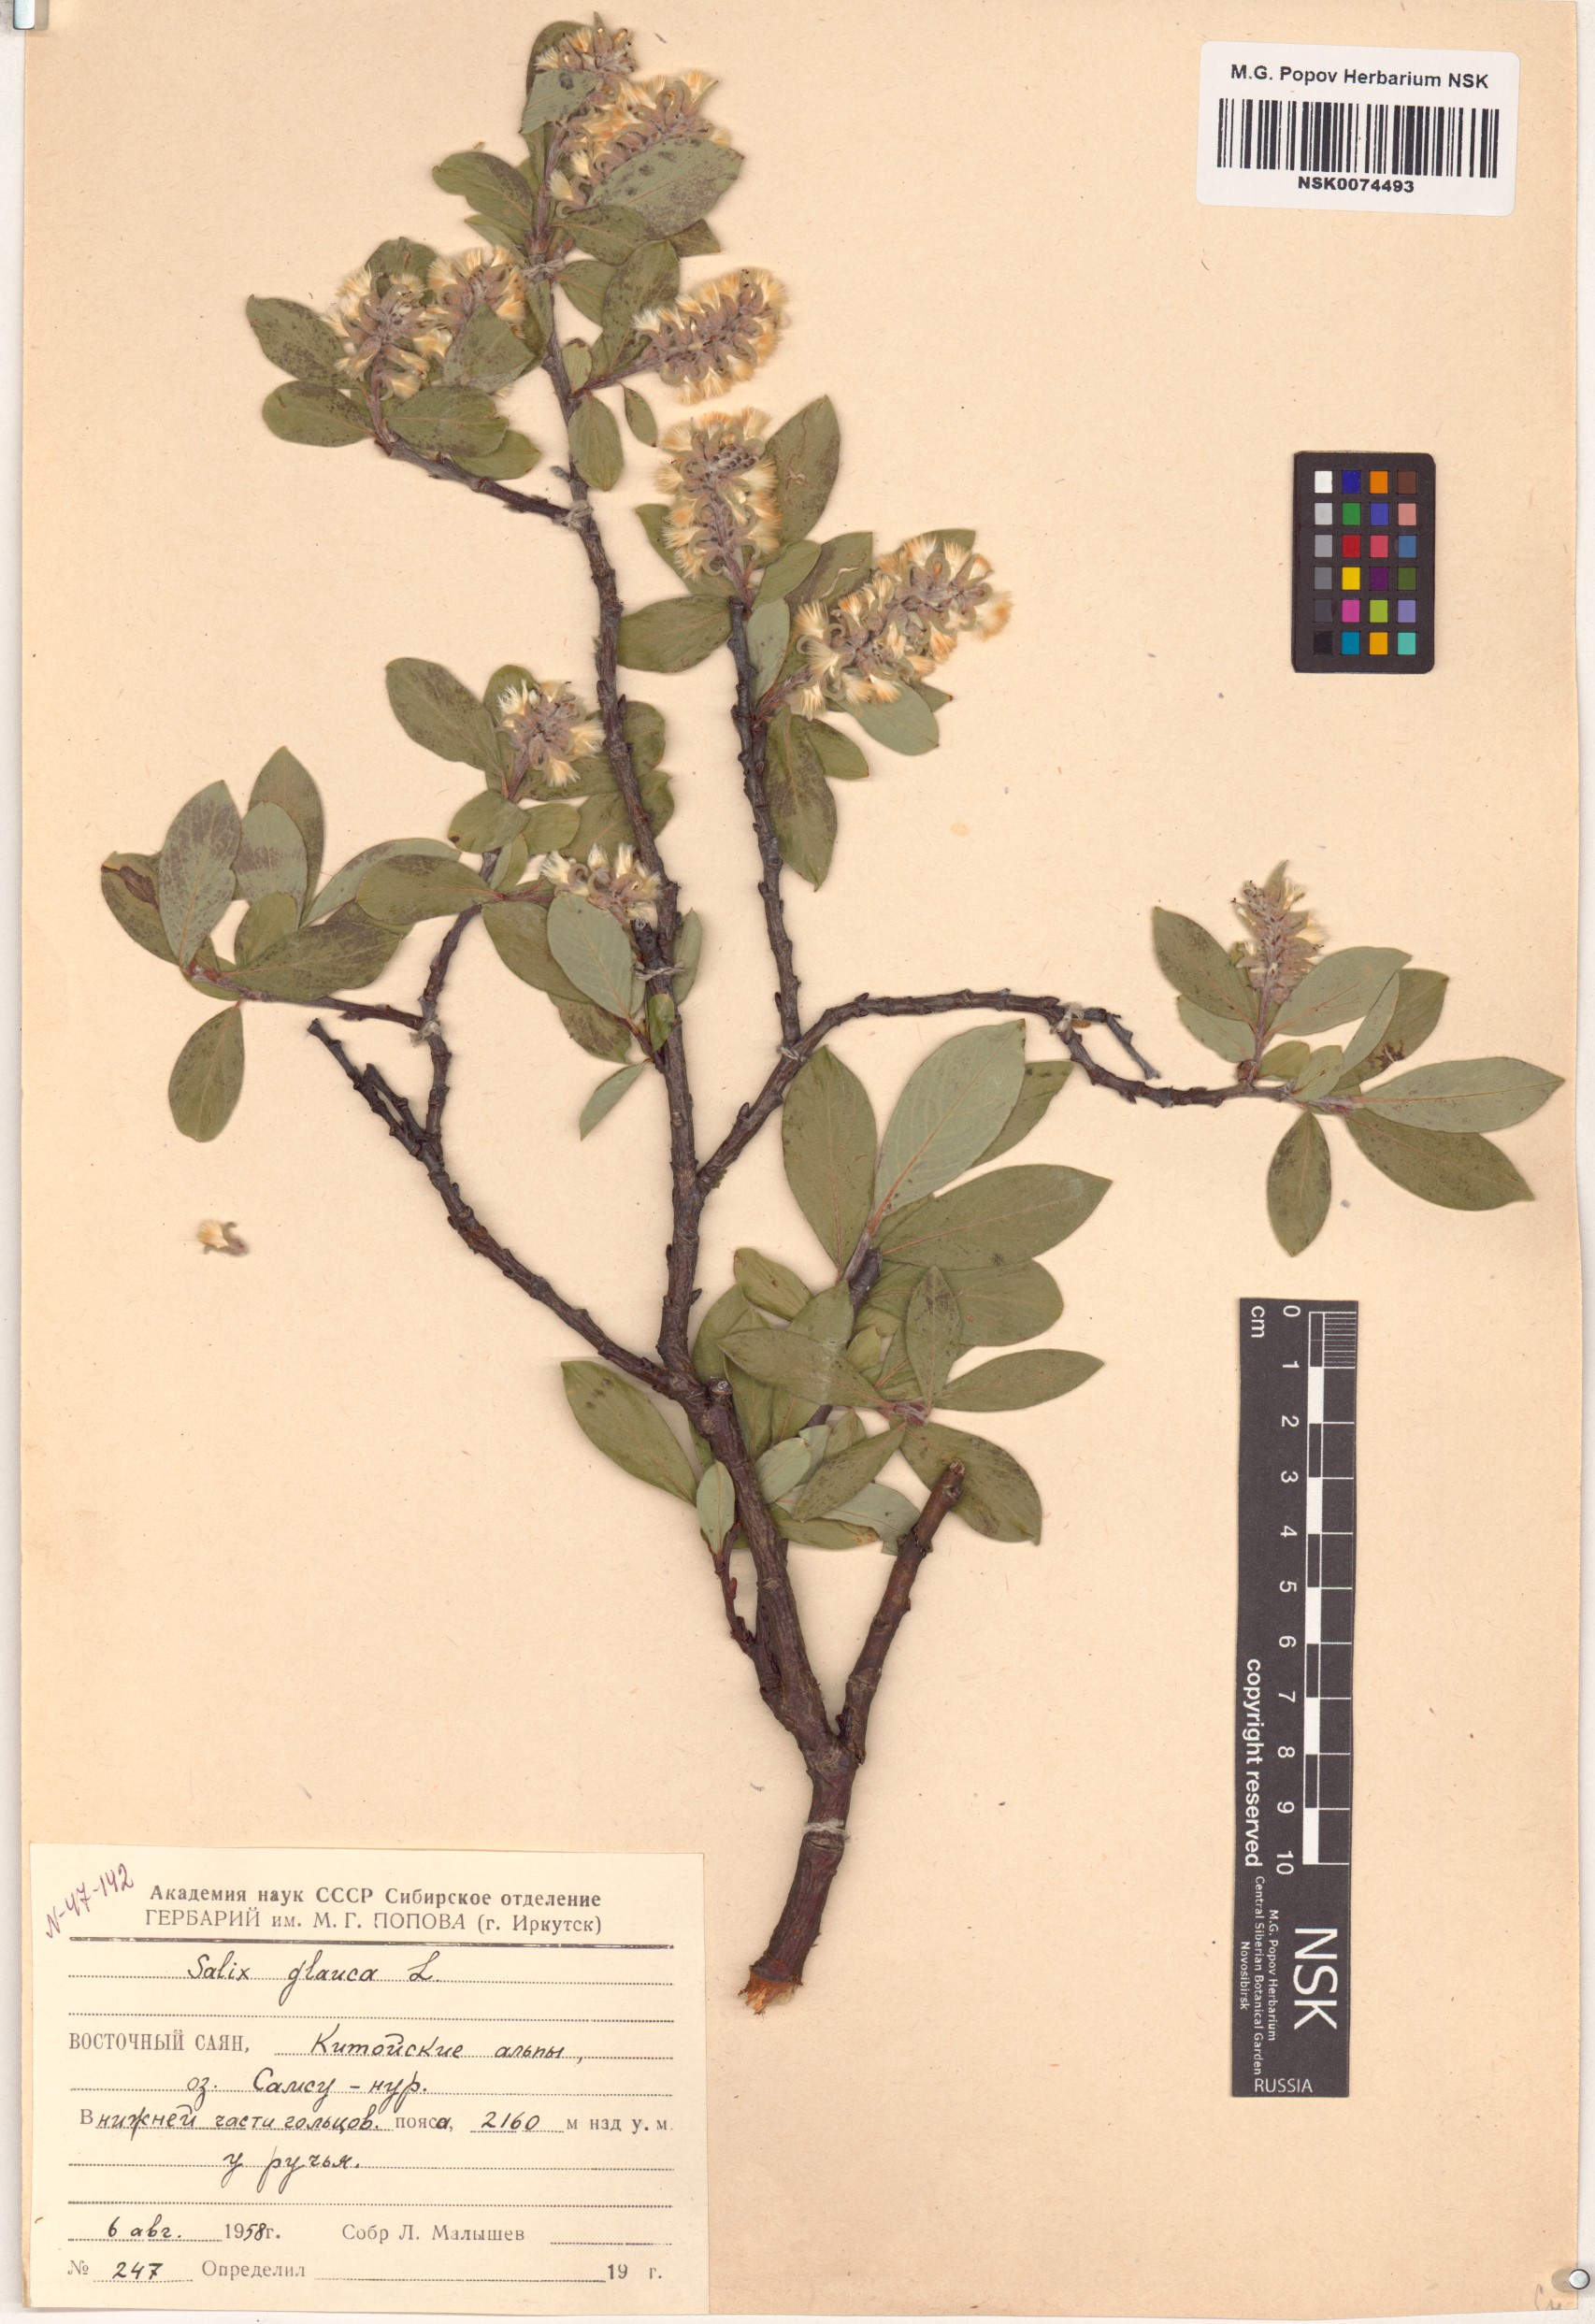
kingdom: Plantae
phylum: Tracheophyta
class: Magnoliopsida
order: Malpighiales
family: Salicaceae
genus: Salix
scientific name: Salix glauca
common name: Glaucous willow
